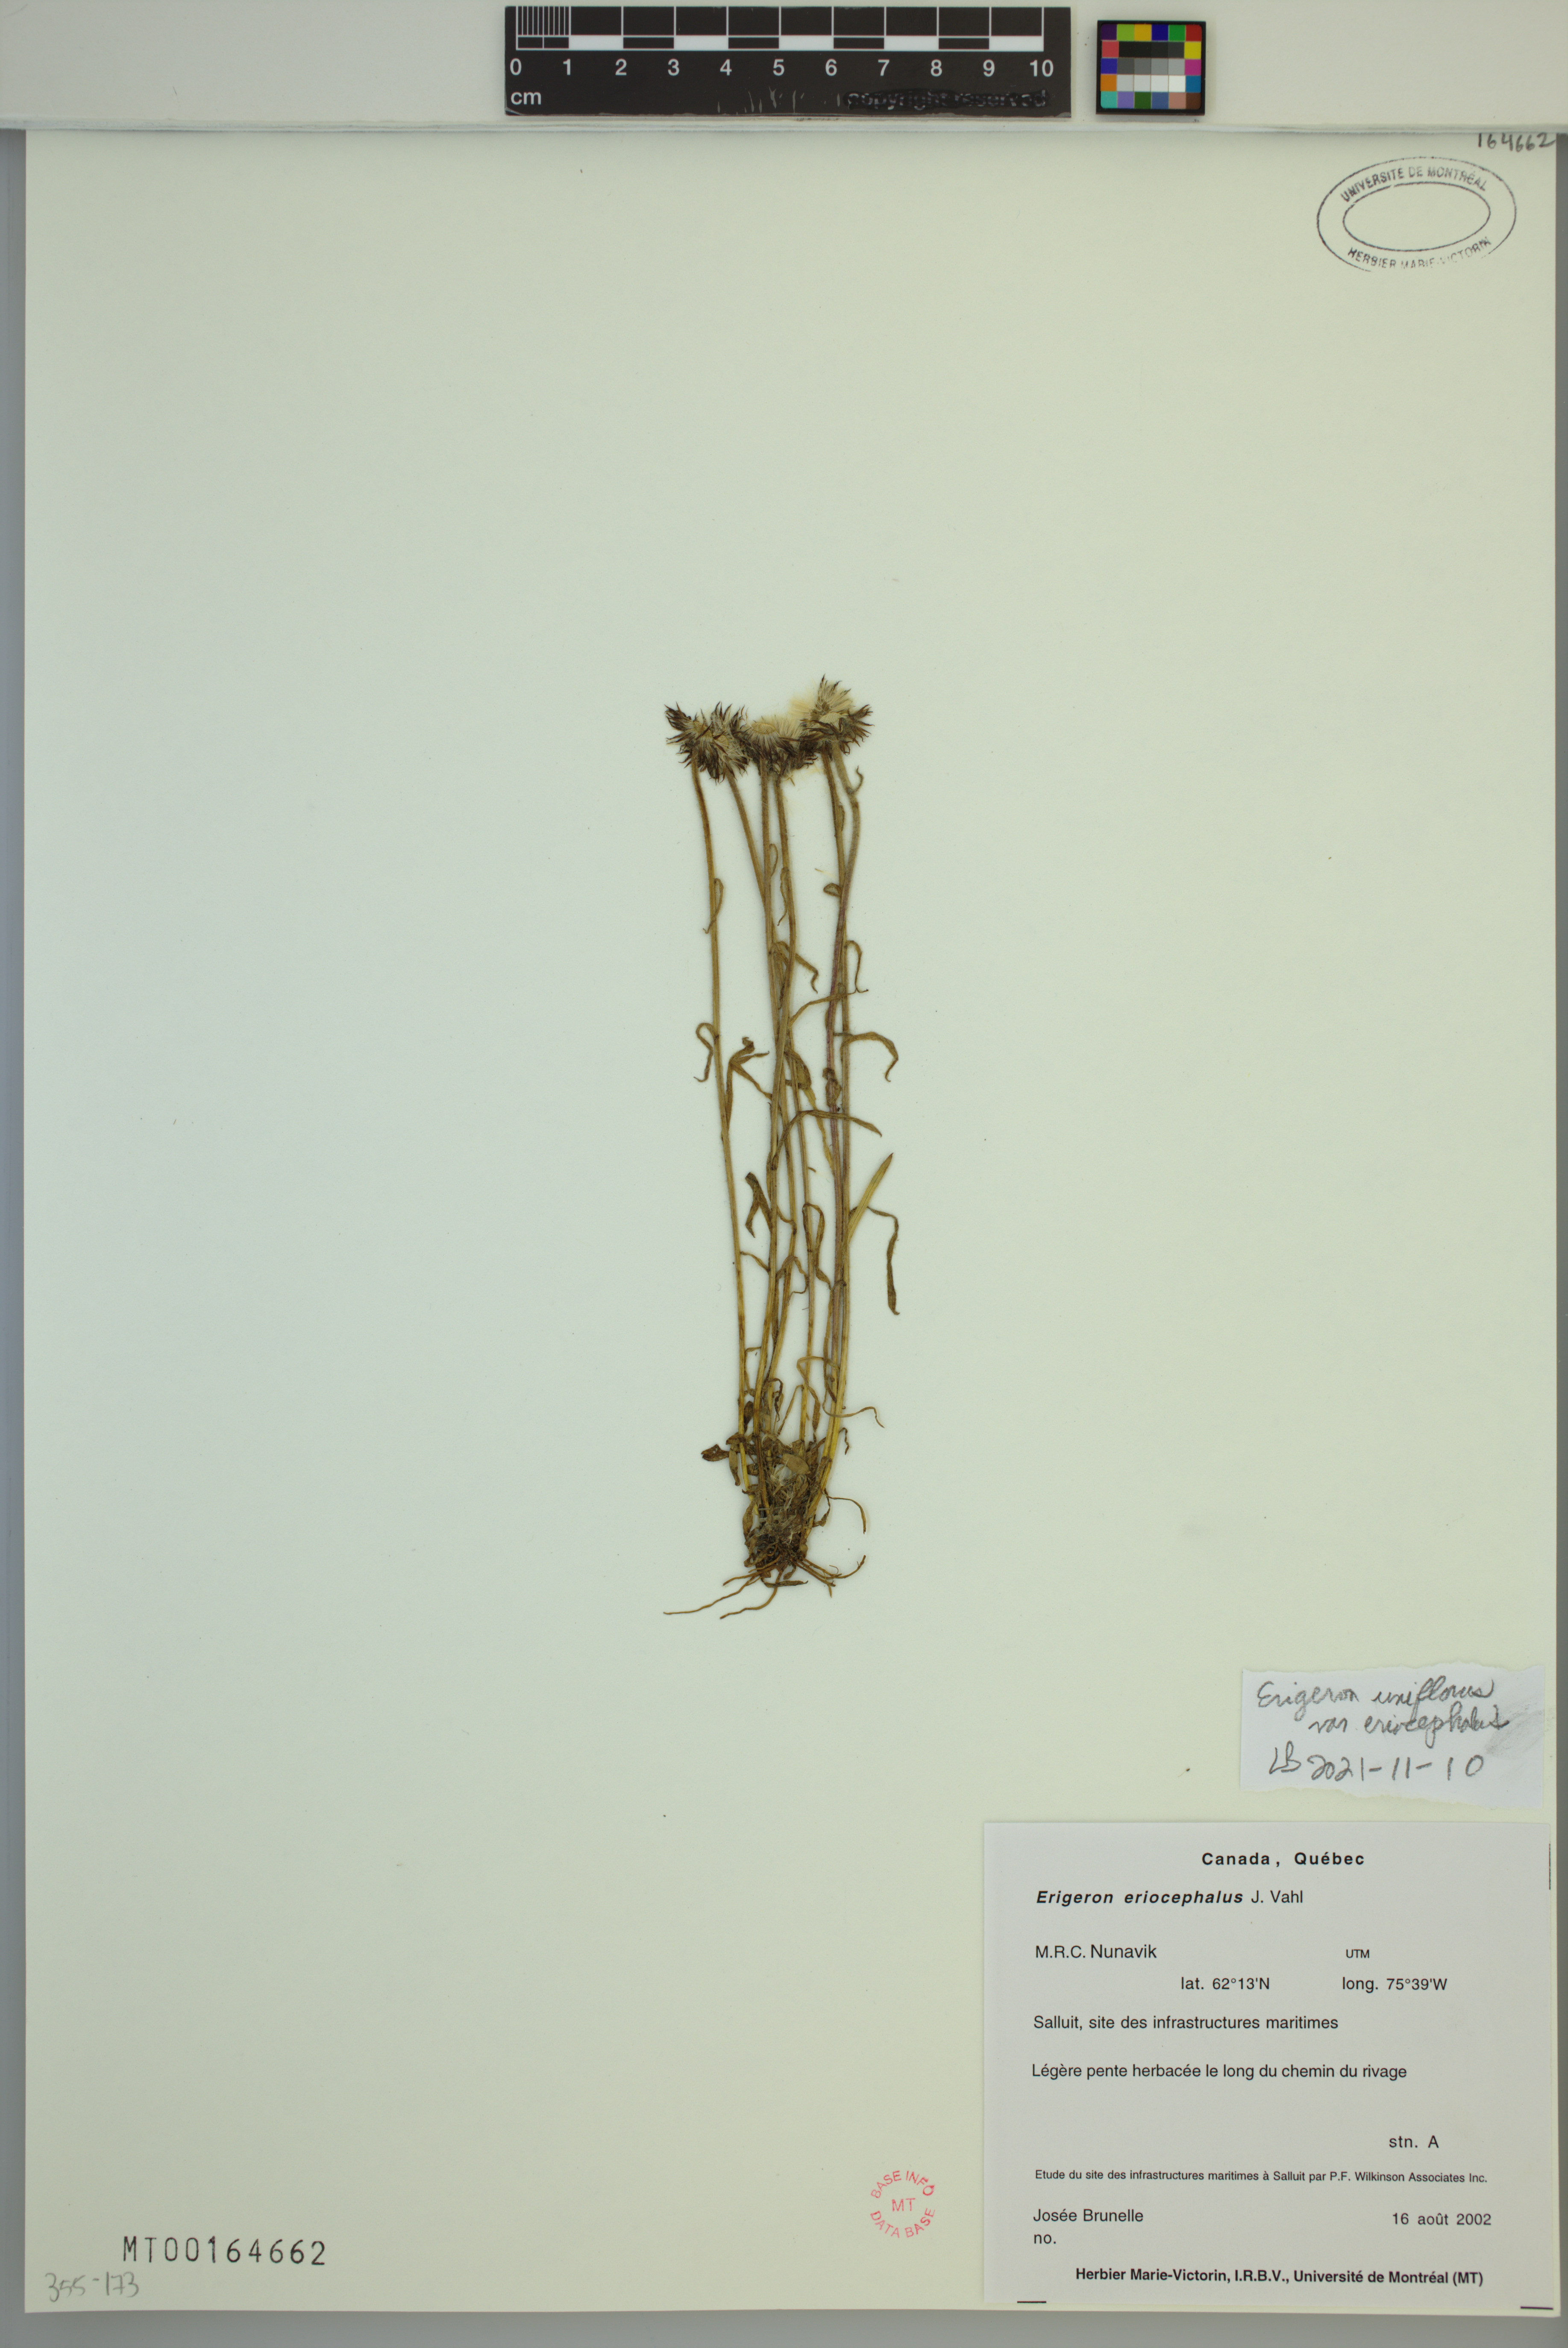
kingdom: Plantae
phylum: Tracheophyta
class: Magnoliopsida
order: Asterales
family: Asteraceae
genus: Erigeron
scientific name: Erigeron eriocephalus
